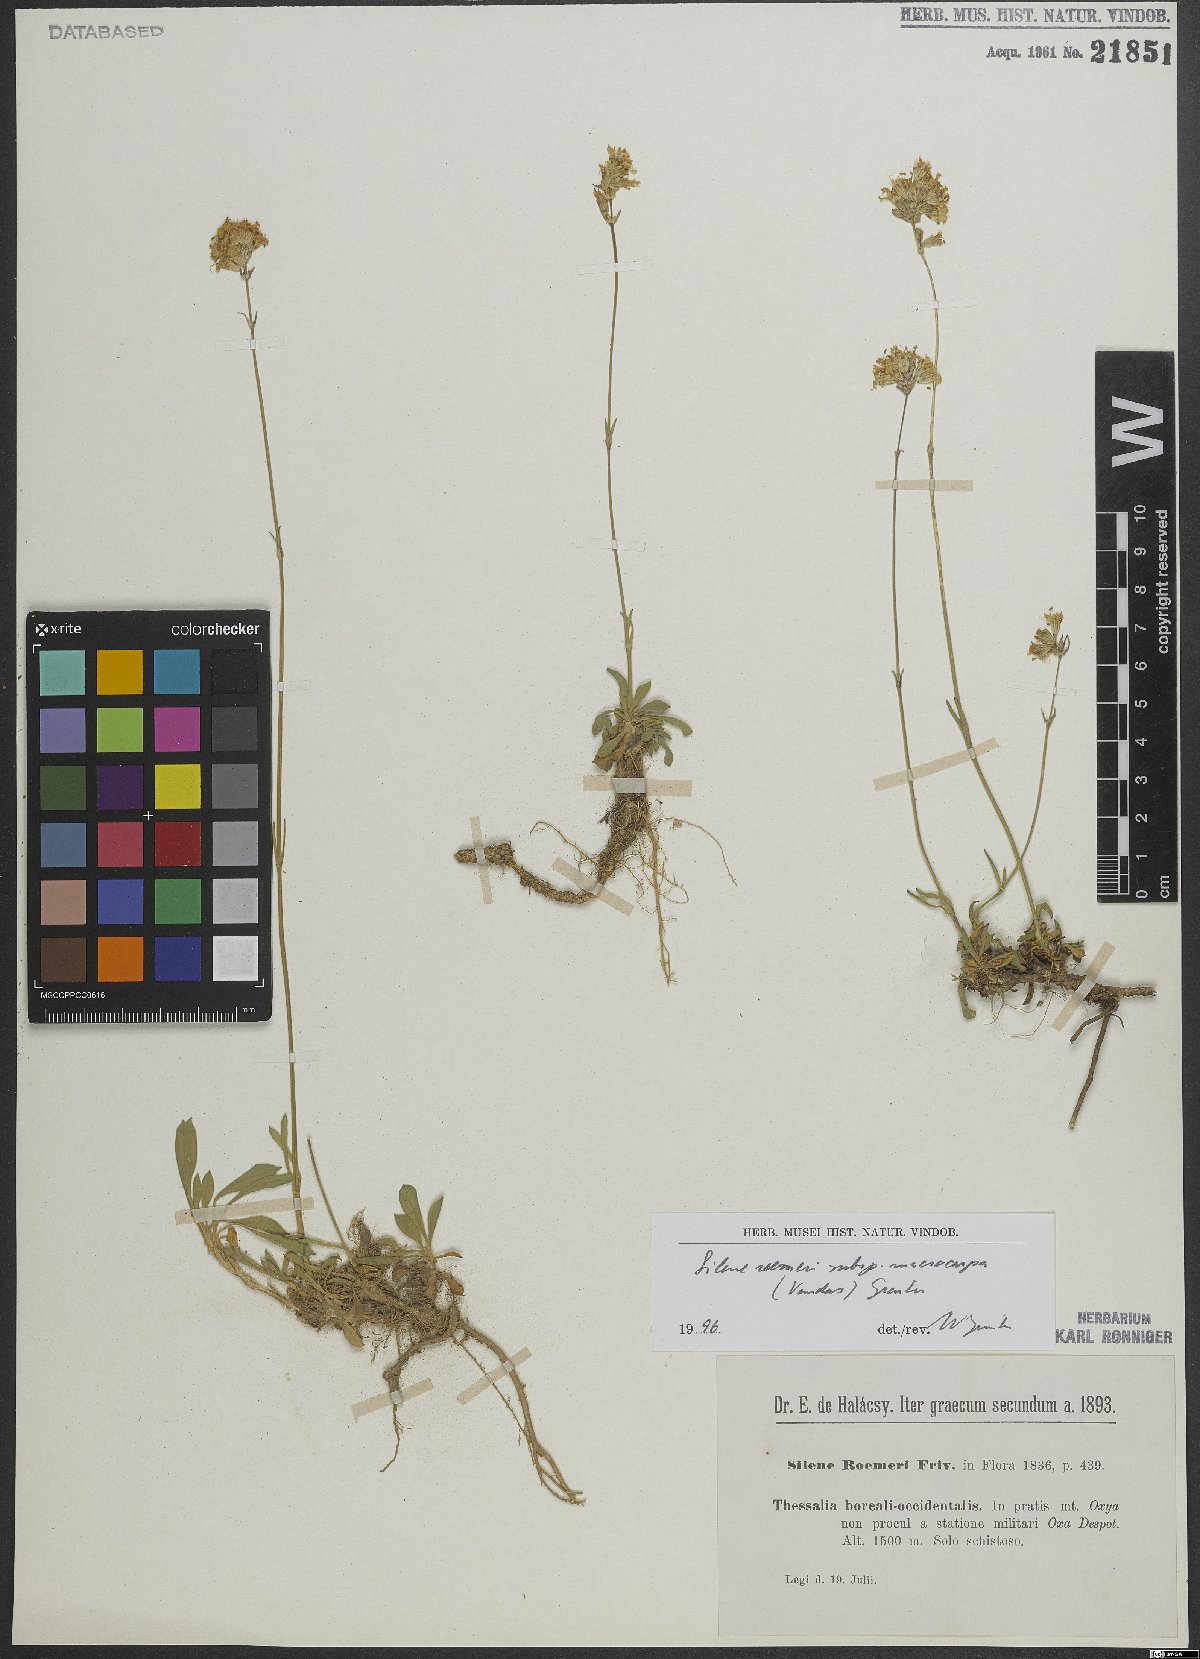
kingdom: Plantae
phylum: Tracheophyta
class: Magnoliopsida
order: Caryophyllales
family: Caryophyllaceae
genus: Silene
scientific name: Silene roemeri
